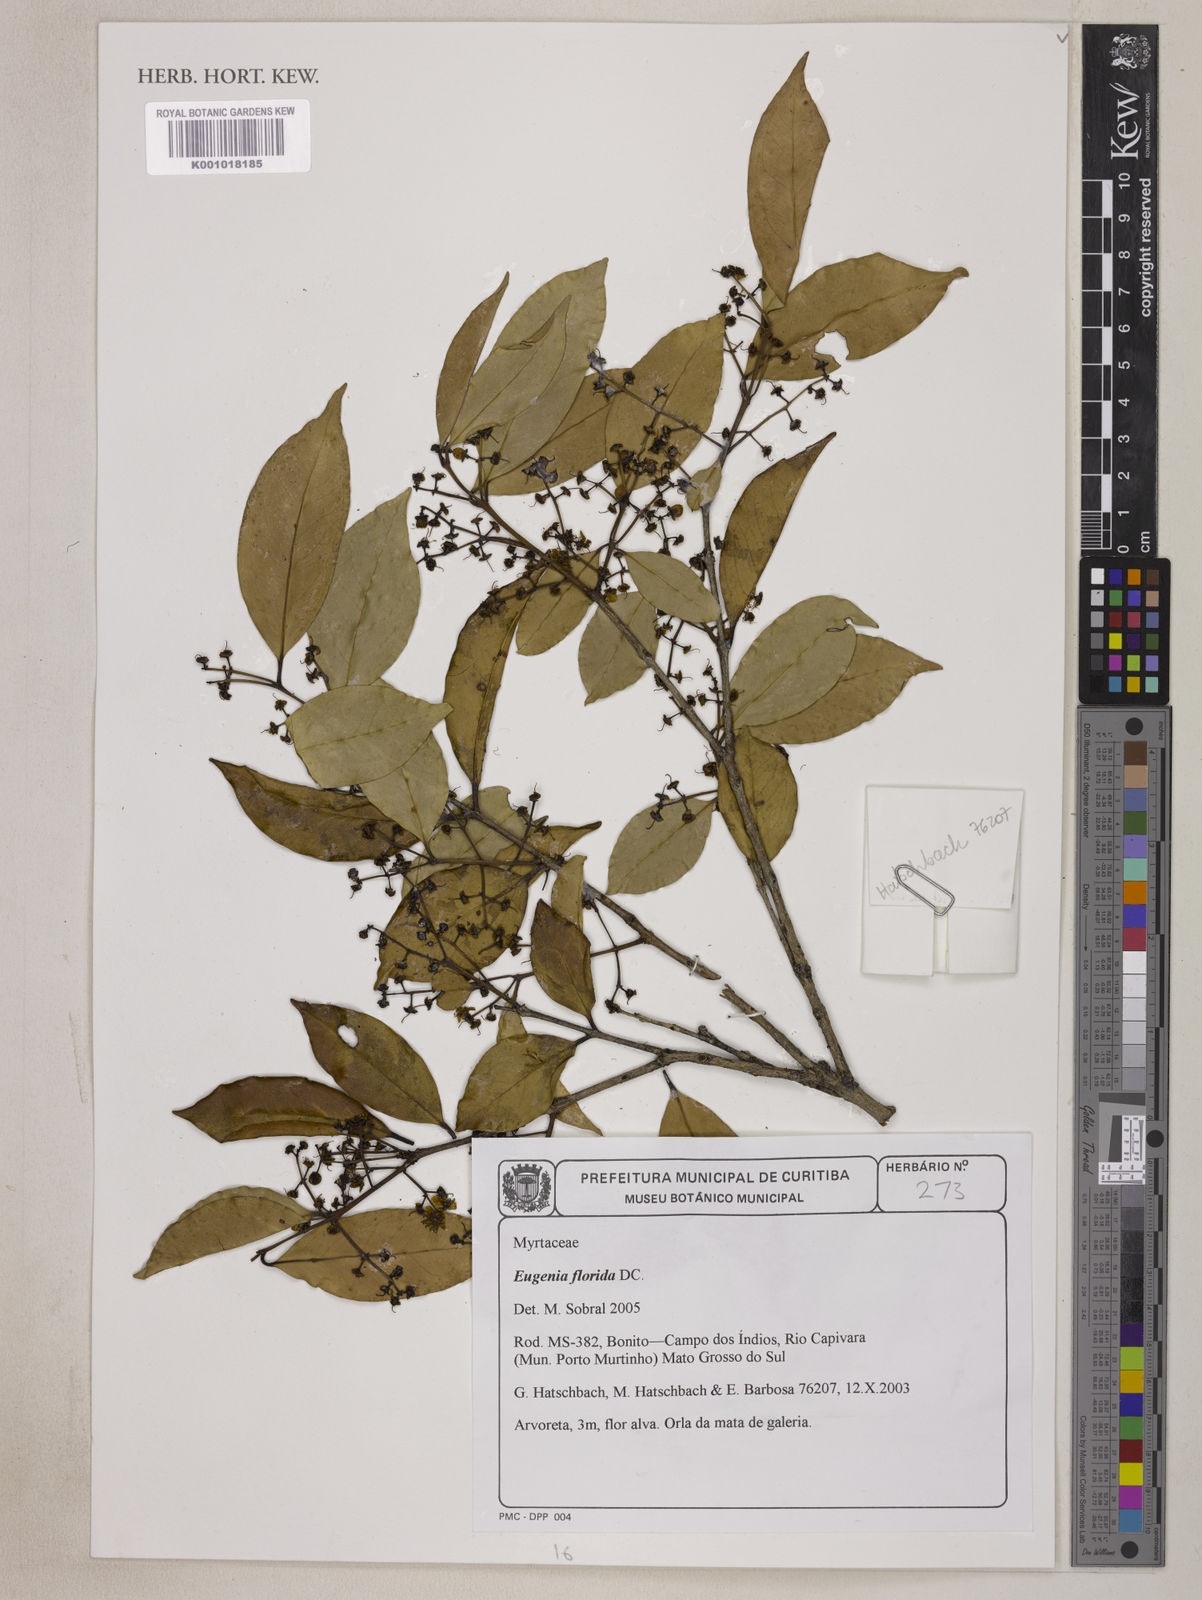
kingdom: Plantae
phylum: Tracheophyta
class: Magnoliopsida
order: Myrtales
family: Myrtaceae
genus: Eugenia
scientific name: Eugenia florida
